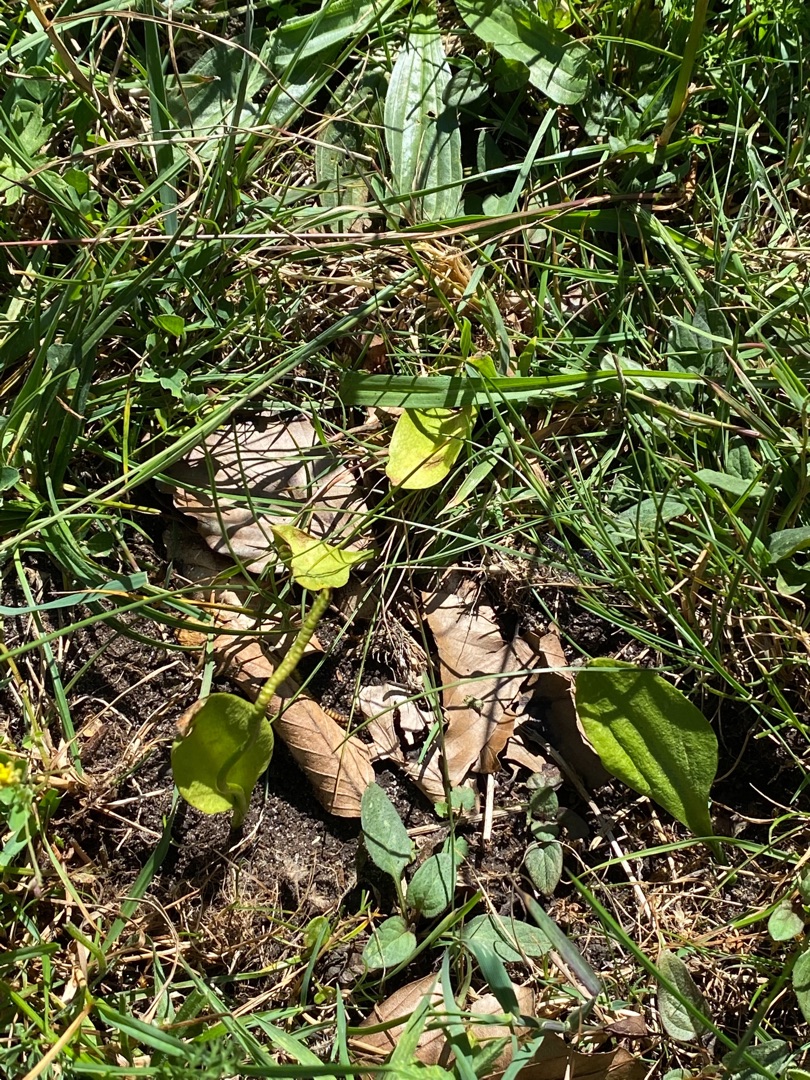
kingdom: Plantae
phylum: Tracheophyta
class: Polypodiopsida
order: Ophioglossales
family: Ophioglossaceae
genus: Ophioglossum
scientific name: Ophioglossum vulgatum
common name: Slangetunge
